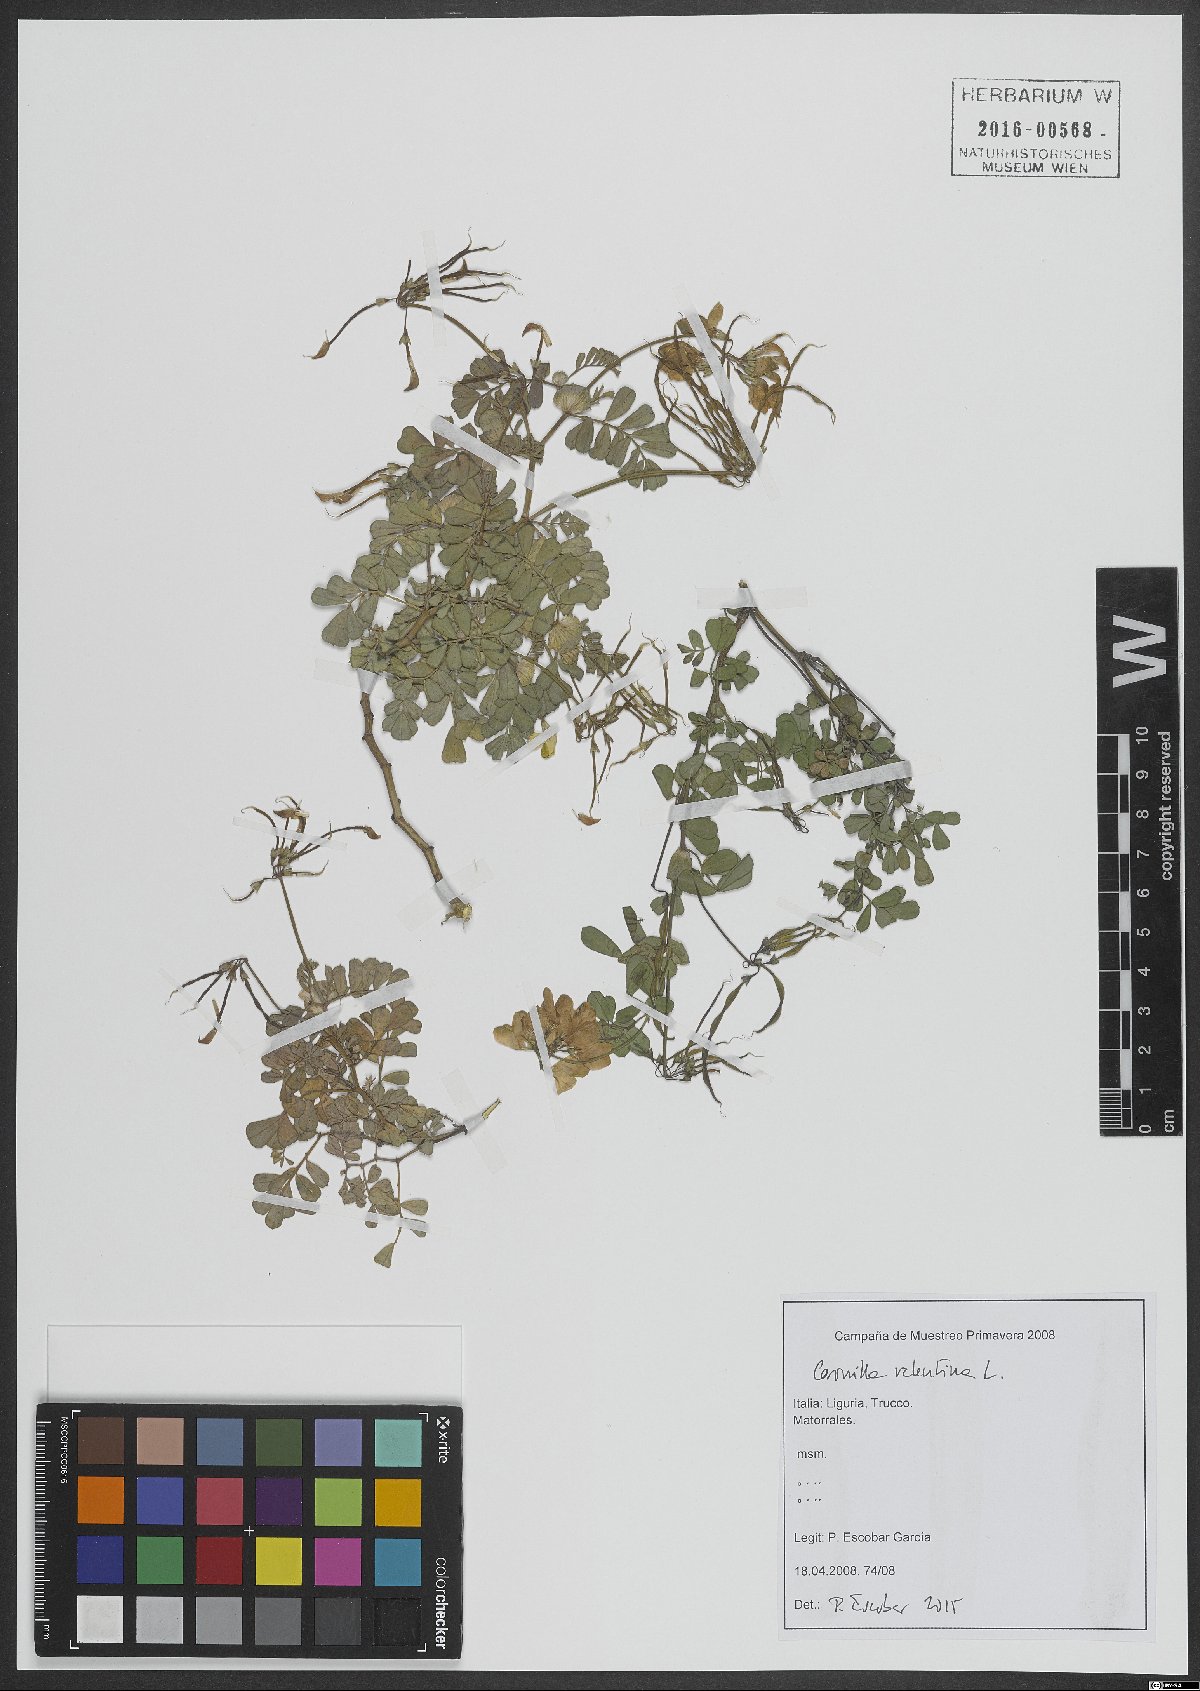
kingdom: Plantae
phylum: Tracheophyta
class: Magnoliopsida
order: Fabales
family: Fabaceae
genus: Coronilla
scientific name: Coronilla valentina
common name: Shrubby scorpion-vetch
